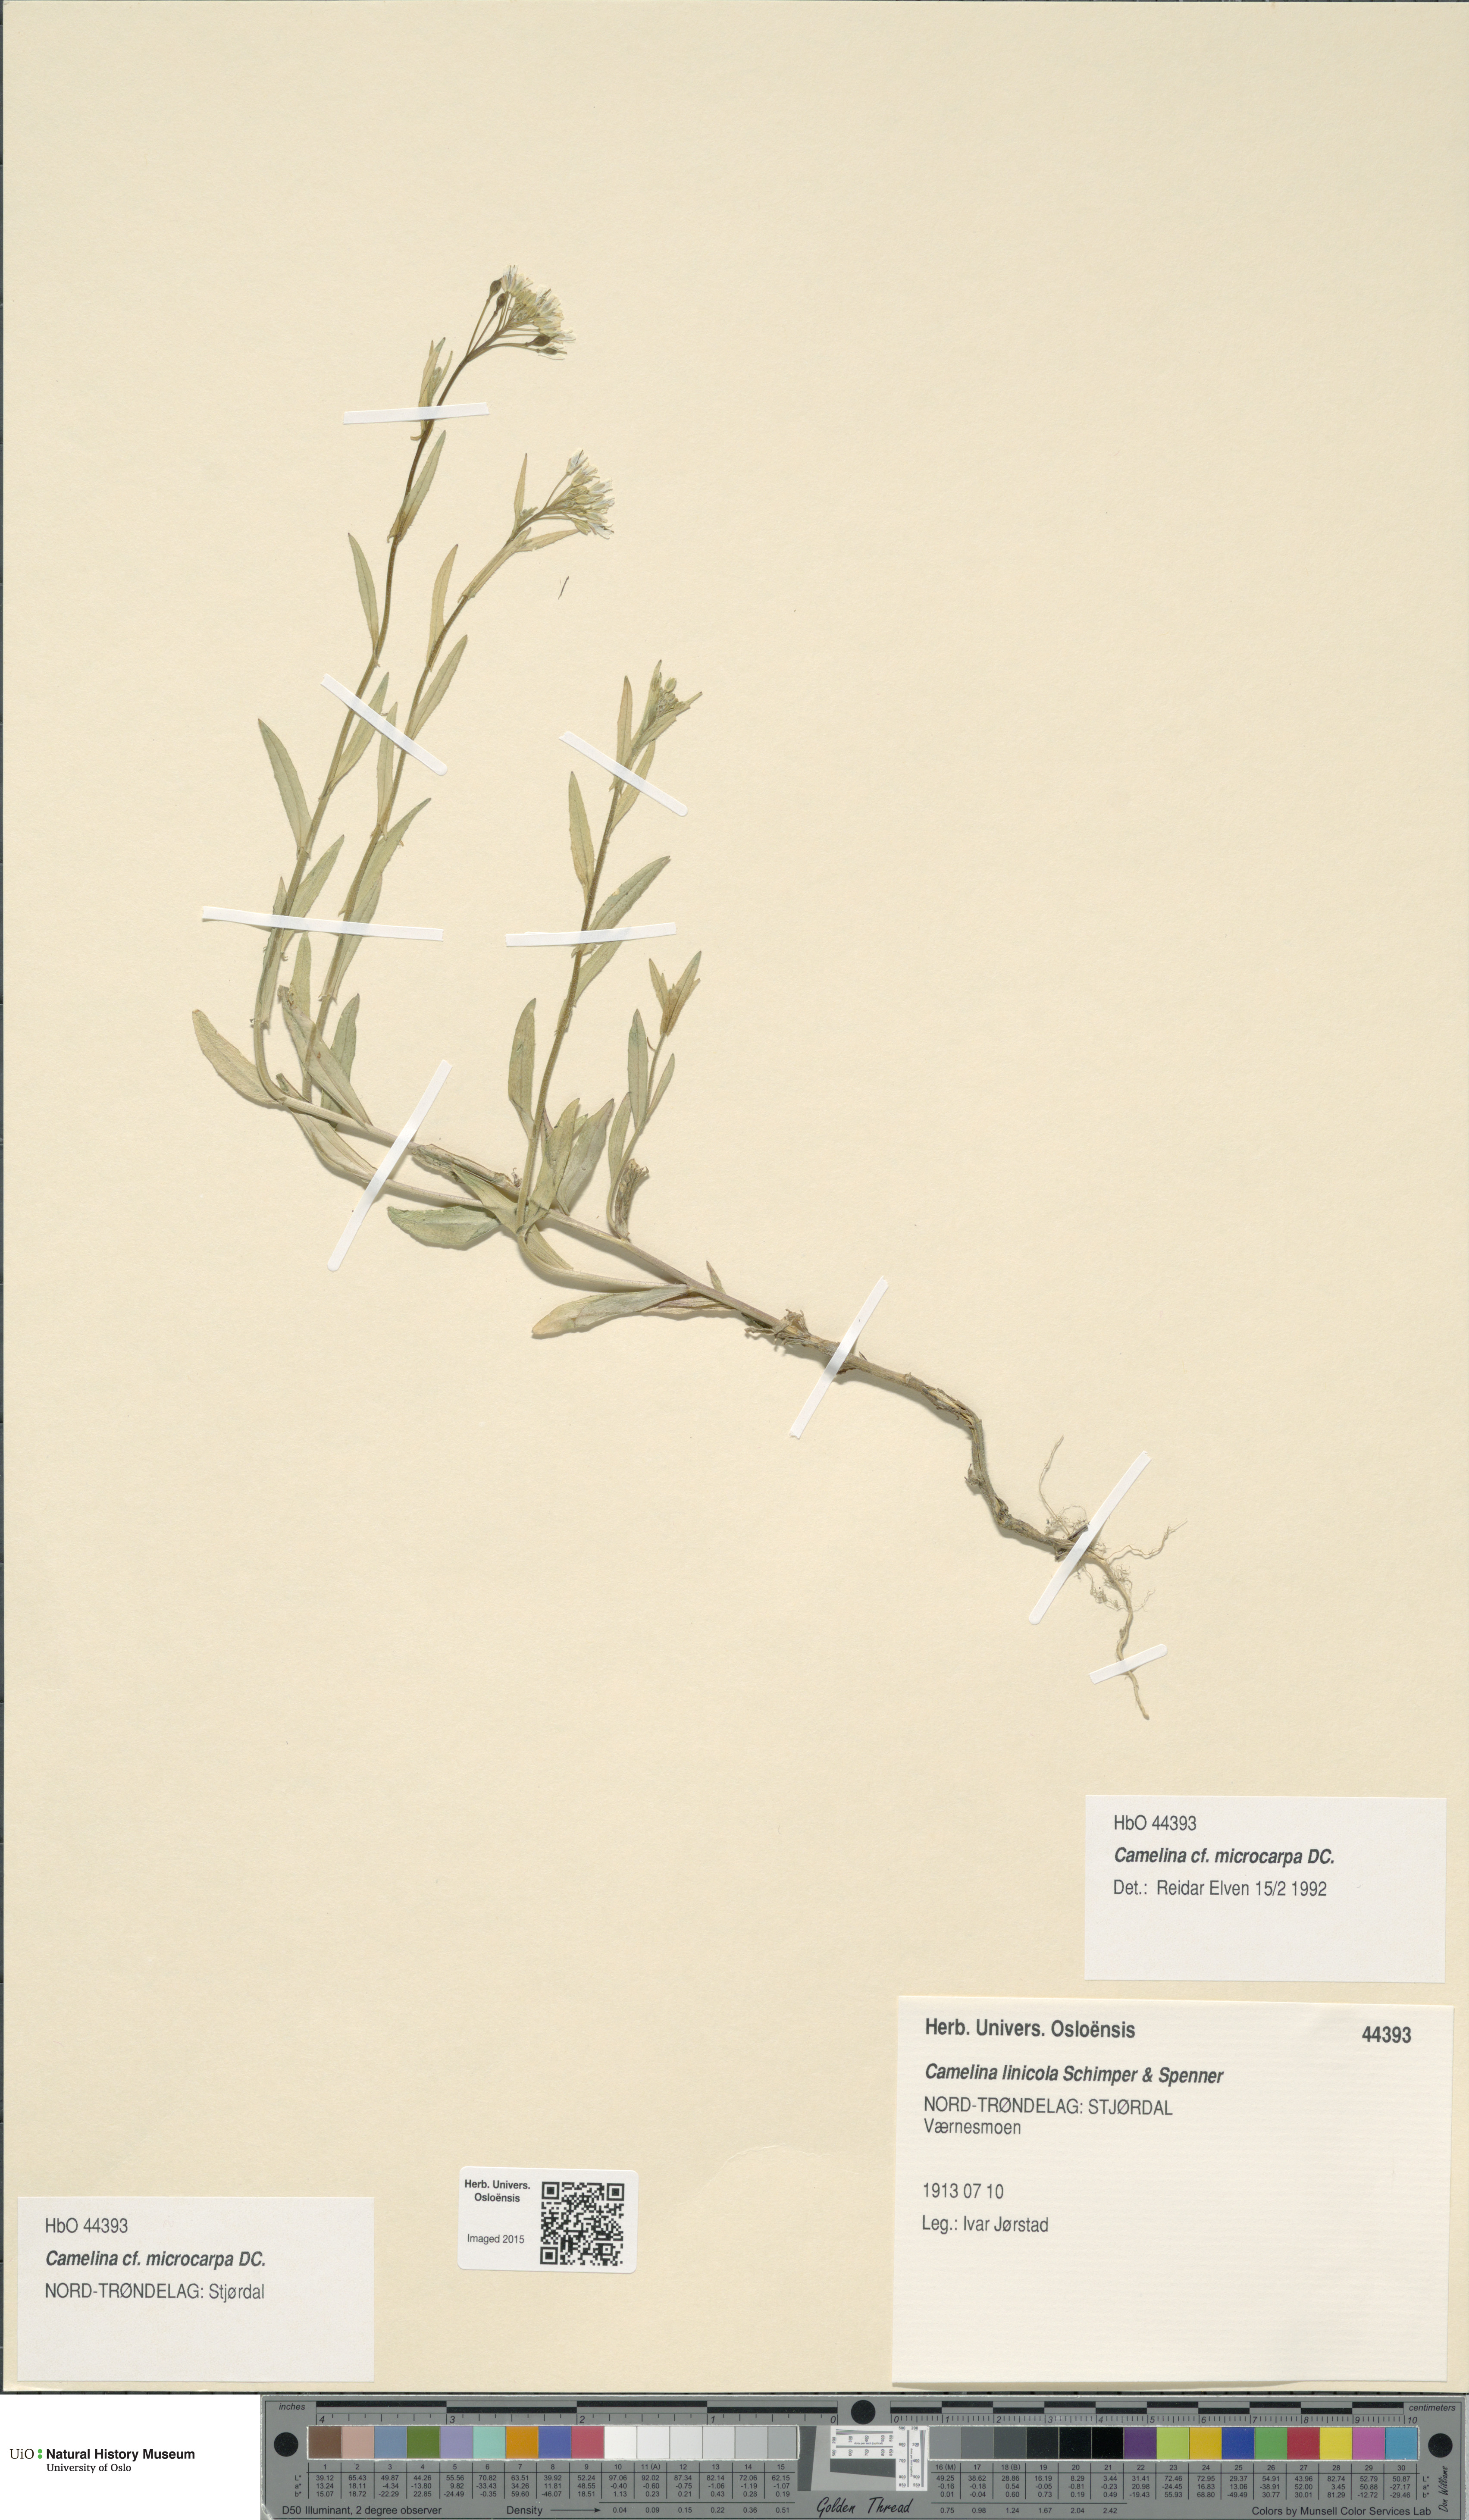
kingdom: Plantae
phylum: Tracheophyta
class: Magnoliopsida
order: Brassicales
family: Brassicaceae
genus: Camelina
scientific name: Camelina sativa
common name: Gold-of-pleasure
